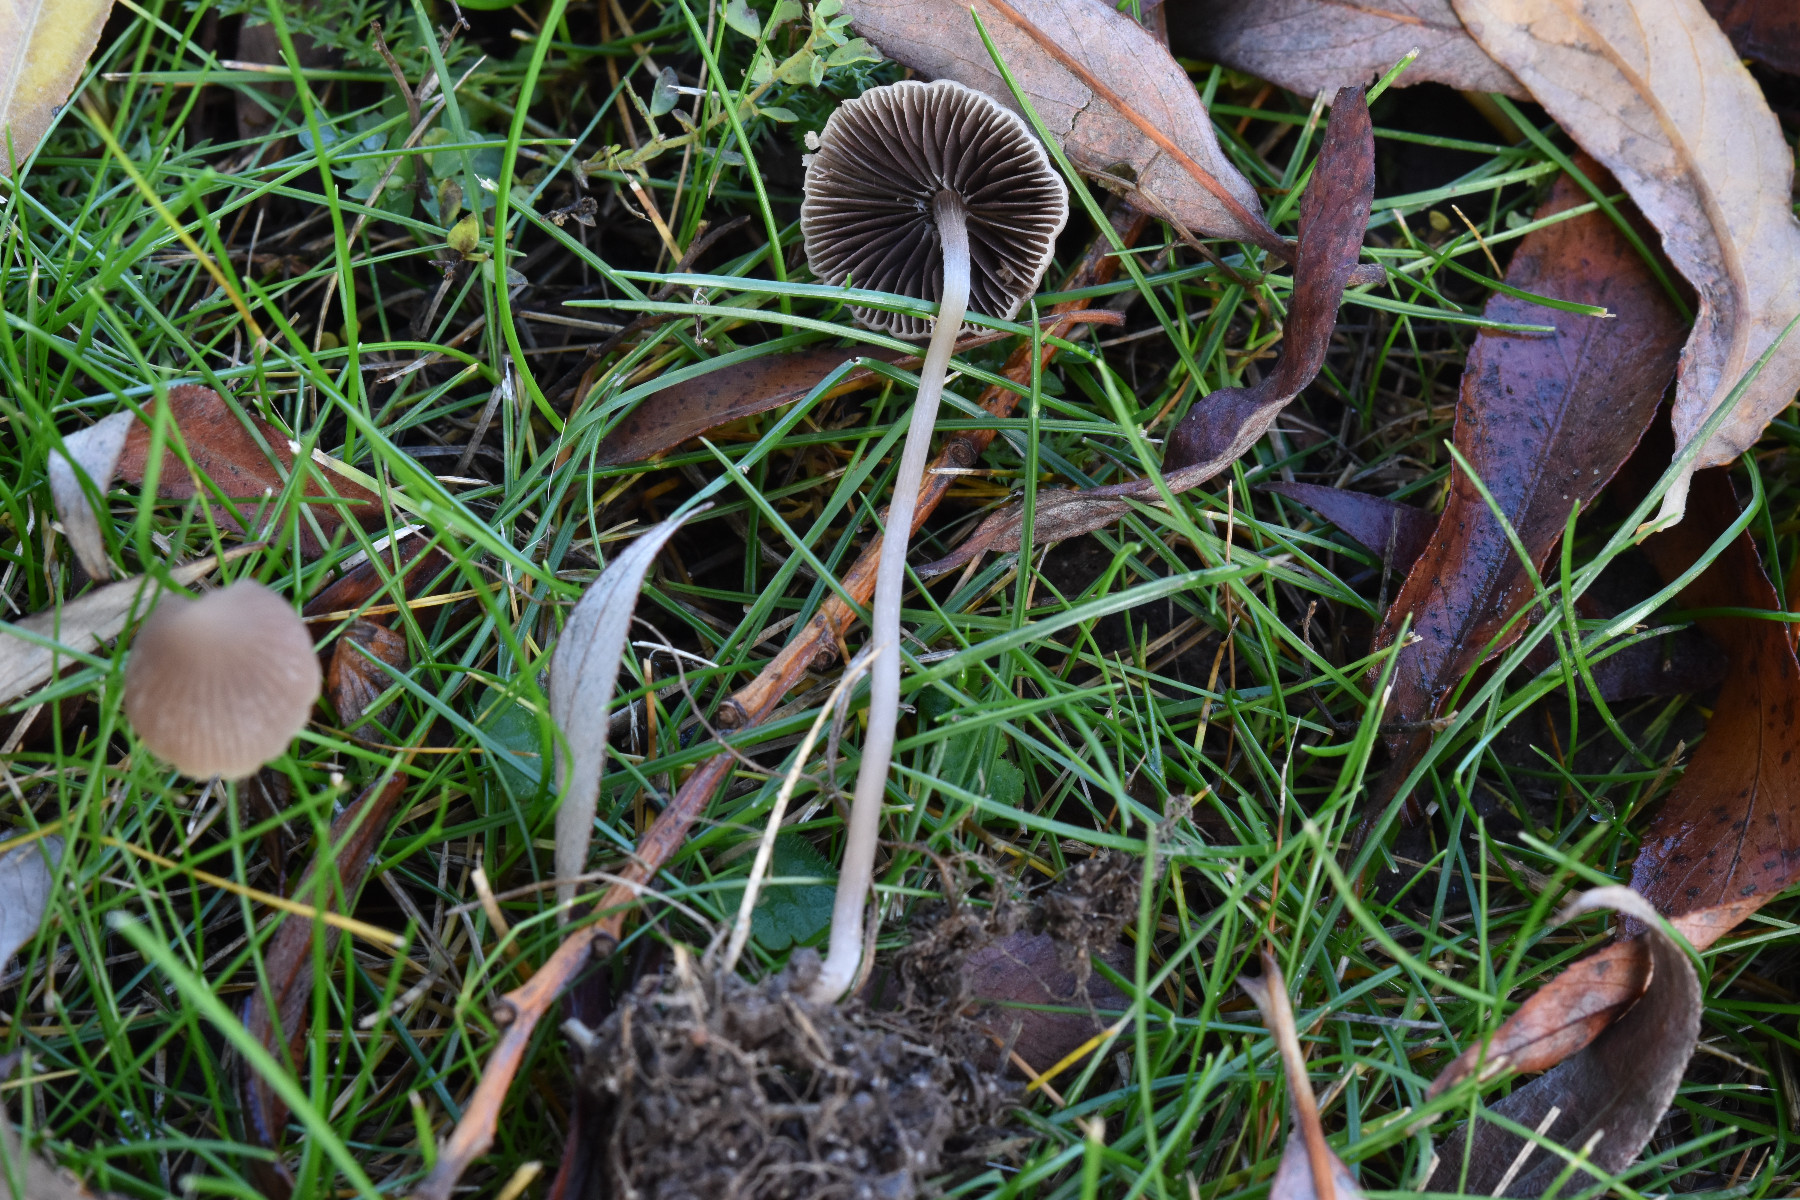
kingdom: Fungi
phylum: Basidiomycota
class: Agaricomycetes
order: Agaricales
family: Psathyrellaceae
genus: Psathyrella
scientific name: Psathyrella prona
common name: vej-mørkhat
